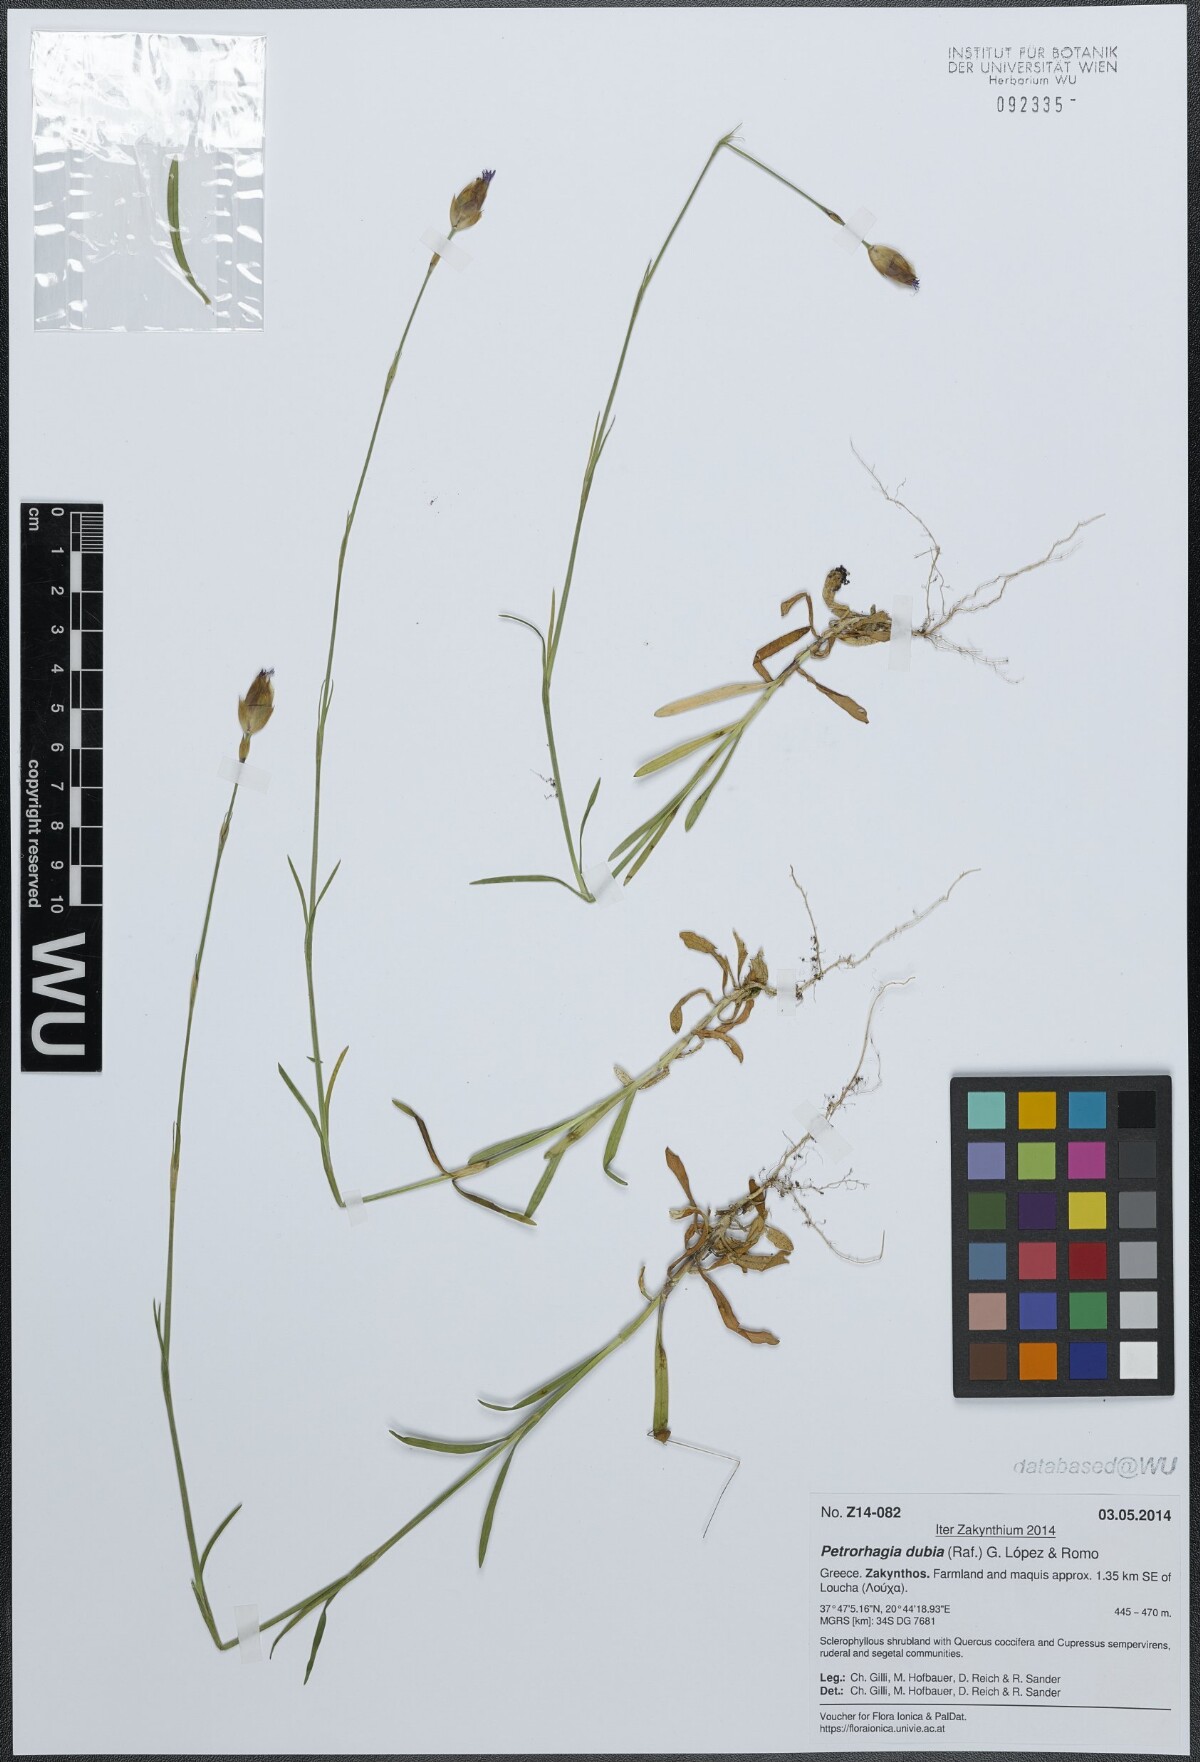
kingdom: Plantae
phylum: Tracheophyta
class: Magnoliopsida
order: Caryophyllales
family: Caryophyllaceae
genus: Petrorhagia
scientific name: Petrorhagia dubia
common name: Hairypink
